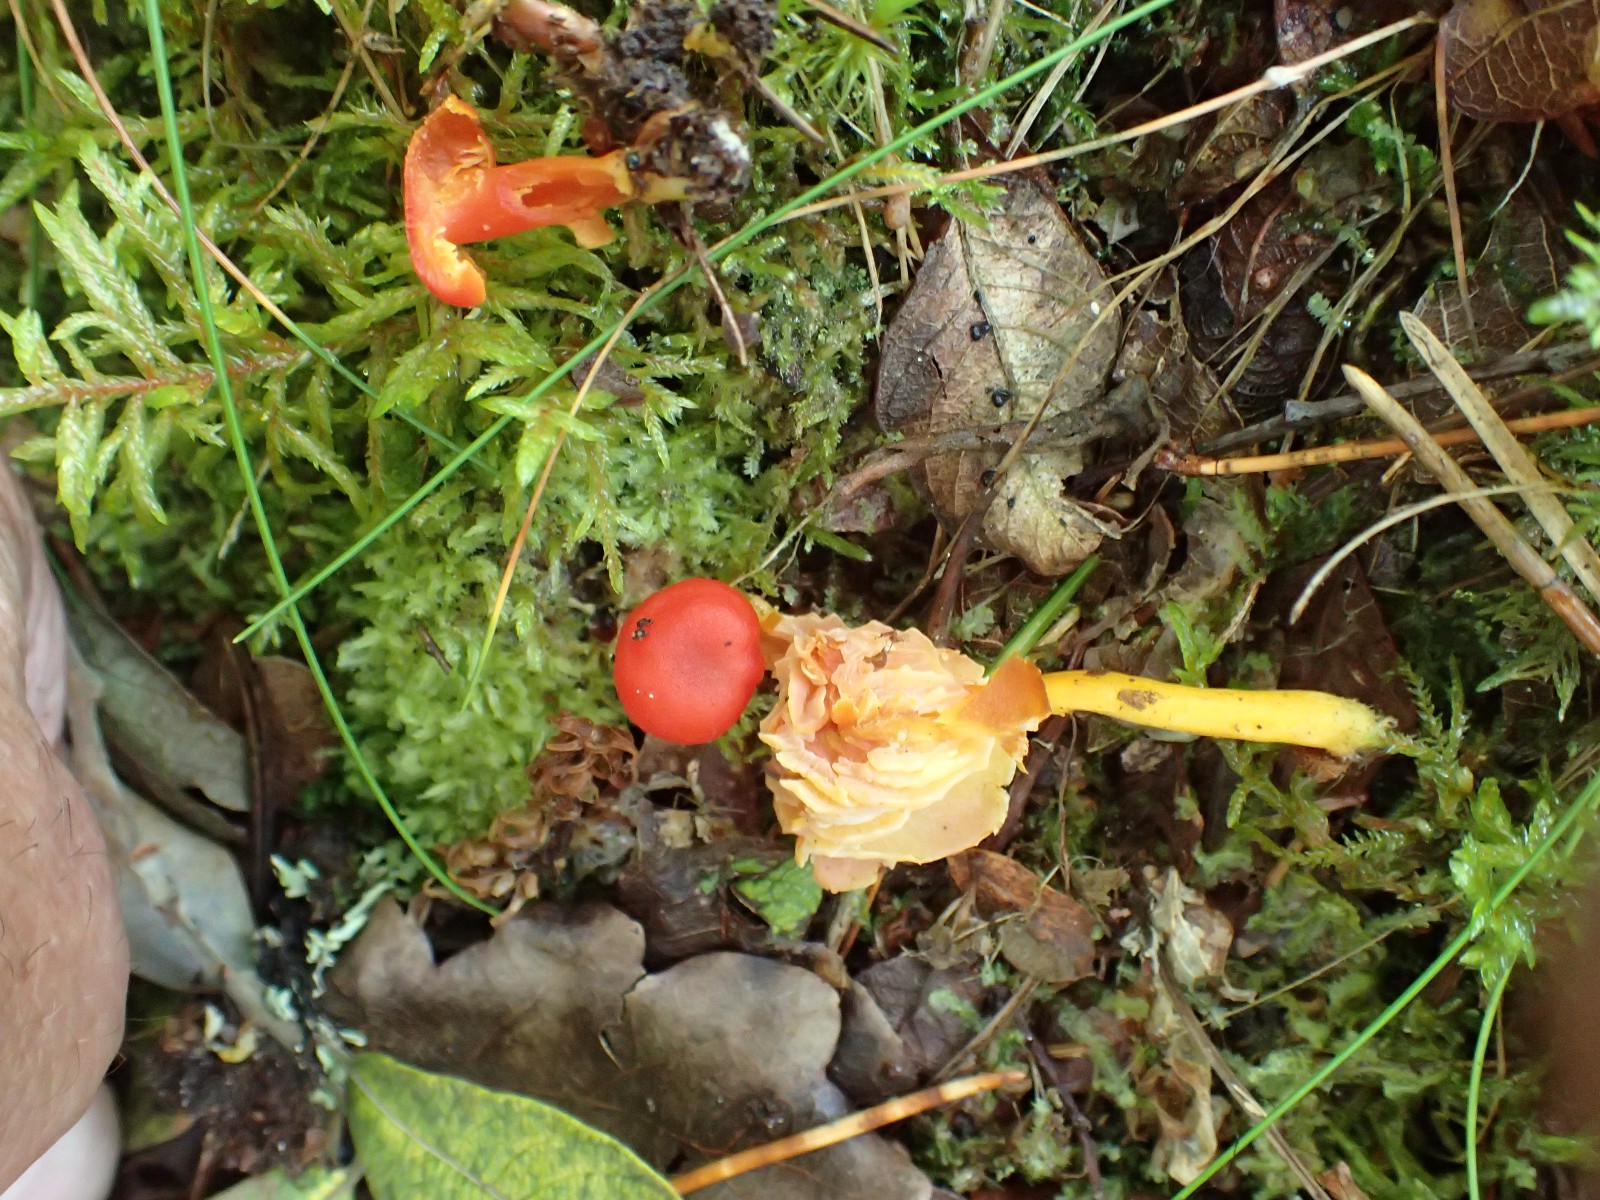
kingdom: Fungi
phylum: Basidiomycota
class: Agaricomycetes
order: Agaricales
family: Hygrophoraceae
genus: Hygrocybe
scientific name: Hygrocybe helobia
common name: hvidløgs-vokshat
